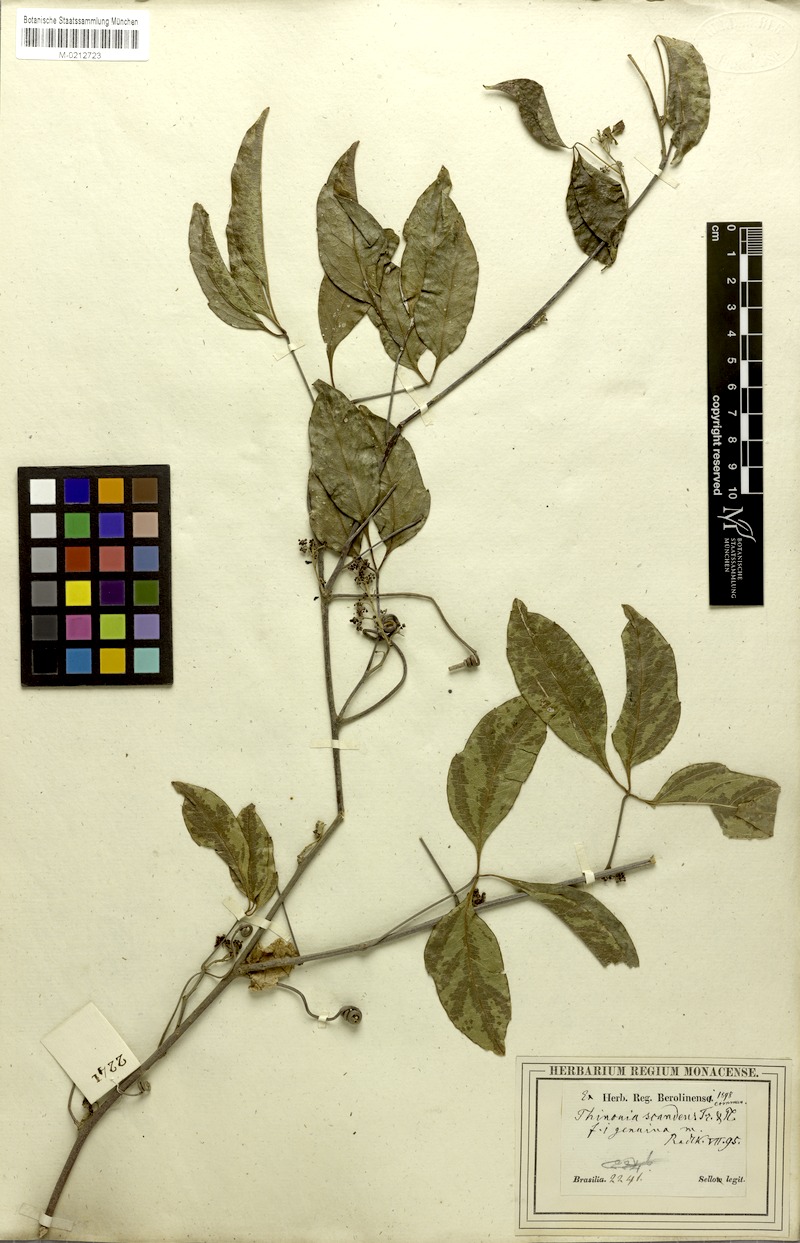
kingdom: Plantae
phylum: Tracheophyta
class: Magnoliopsida
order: Sapindales
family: Sapindaceae
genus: Thinouia
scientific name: Thinouia scandens
